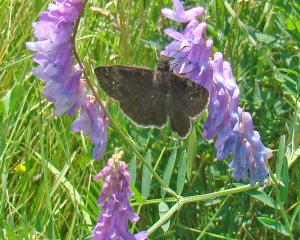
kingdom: Animalia
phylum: Arthropoda
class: Insecta
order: Lepidoptera
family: Hesperiidae
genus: Gesta
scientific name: Gesta
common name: Wild Indigo Duskywing
